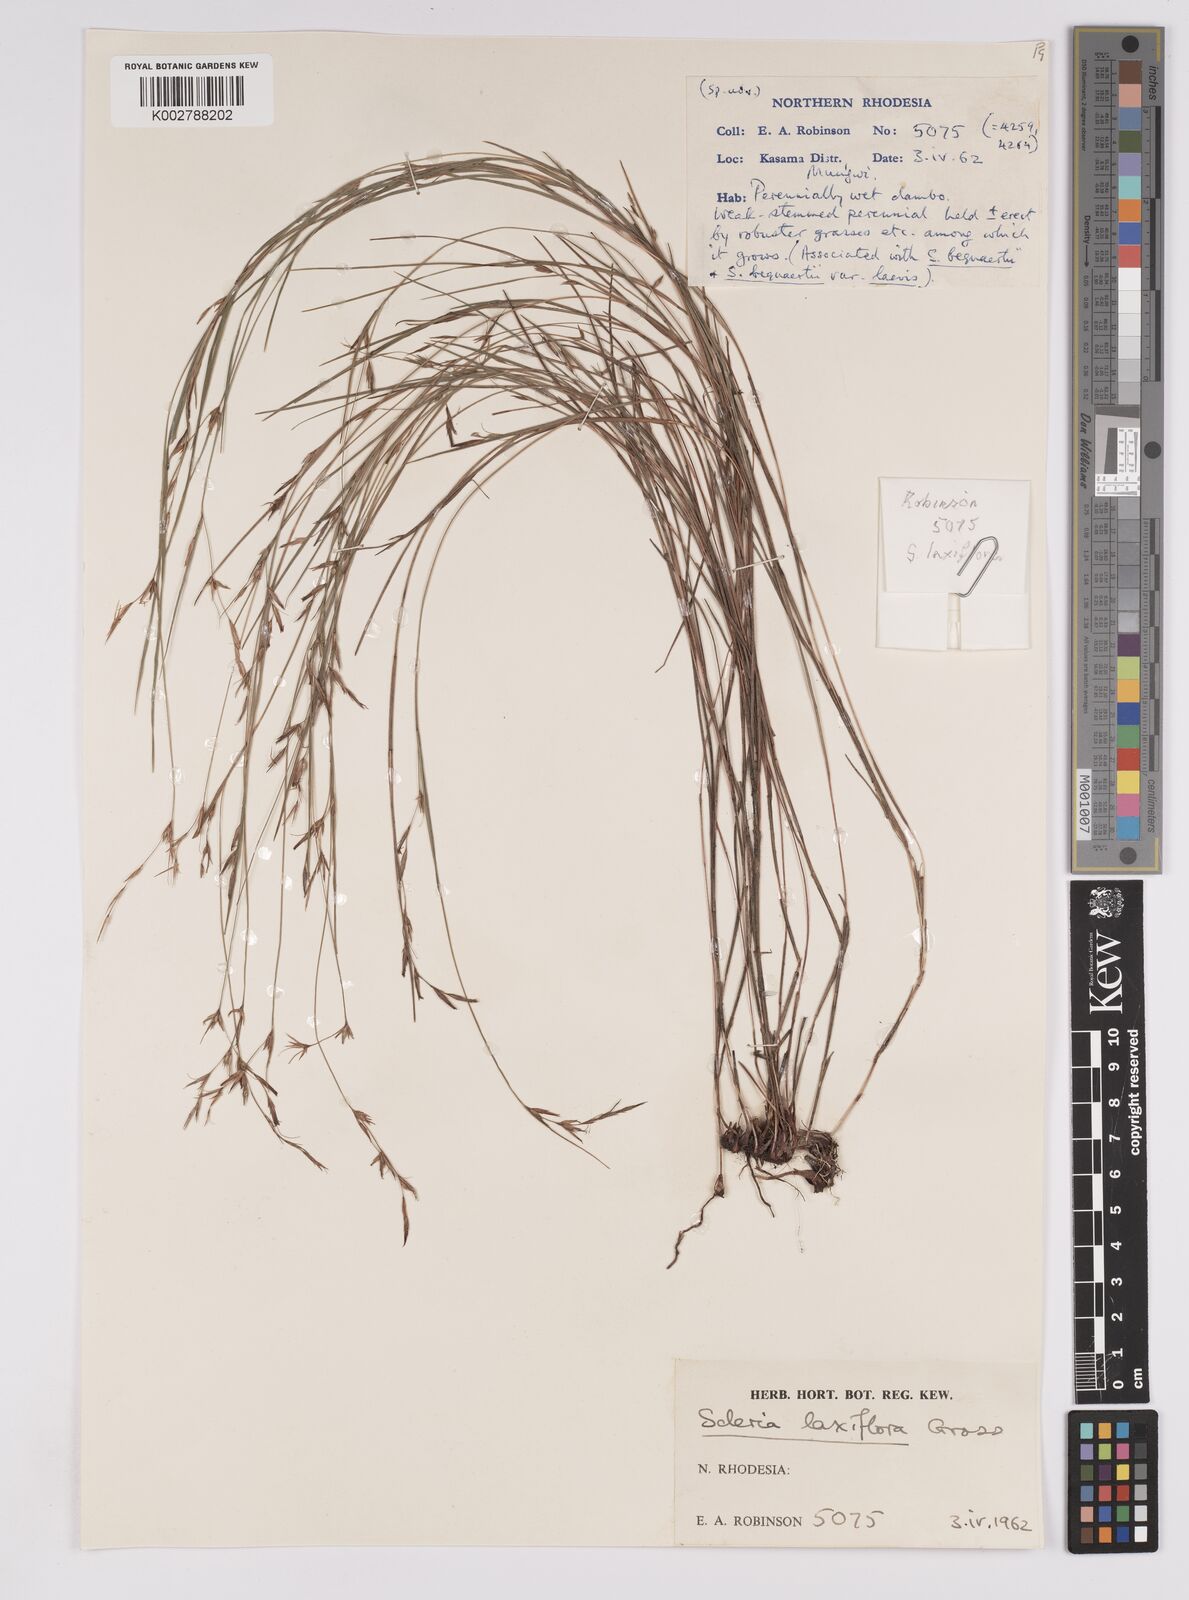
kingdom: Plantae
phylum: Tracheophyta
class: Liliopsida
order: Poales
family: Cyperaceae
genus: Scleria
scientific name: Scleria laxiflora
